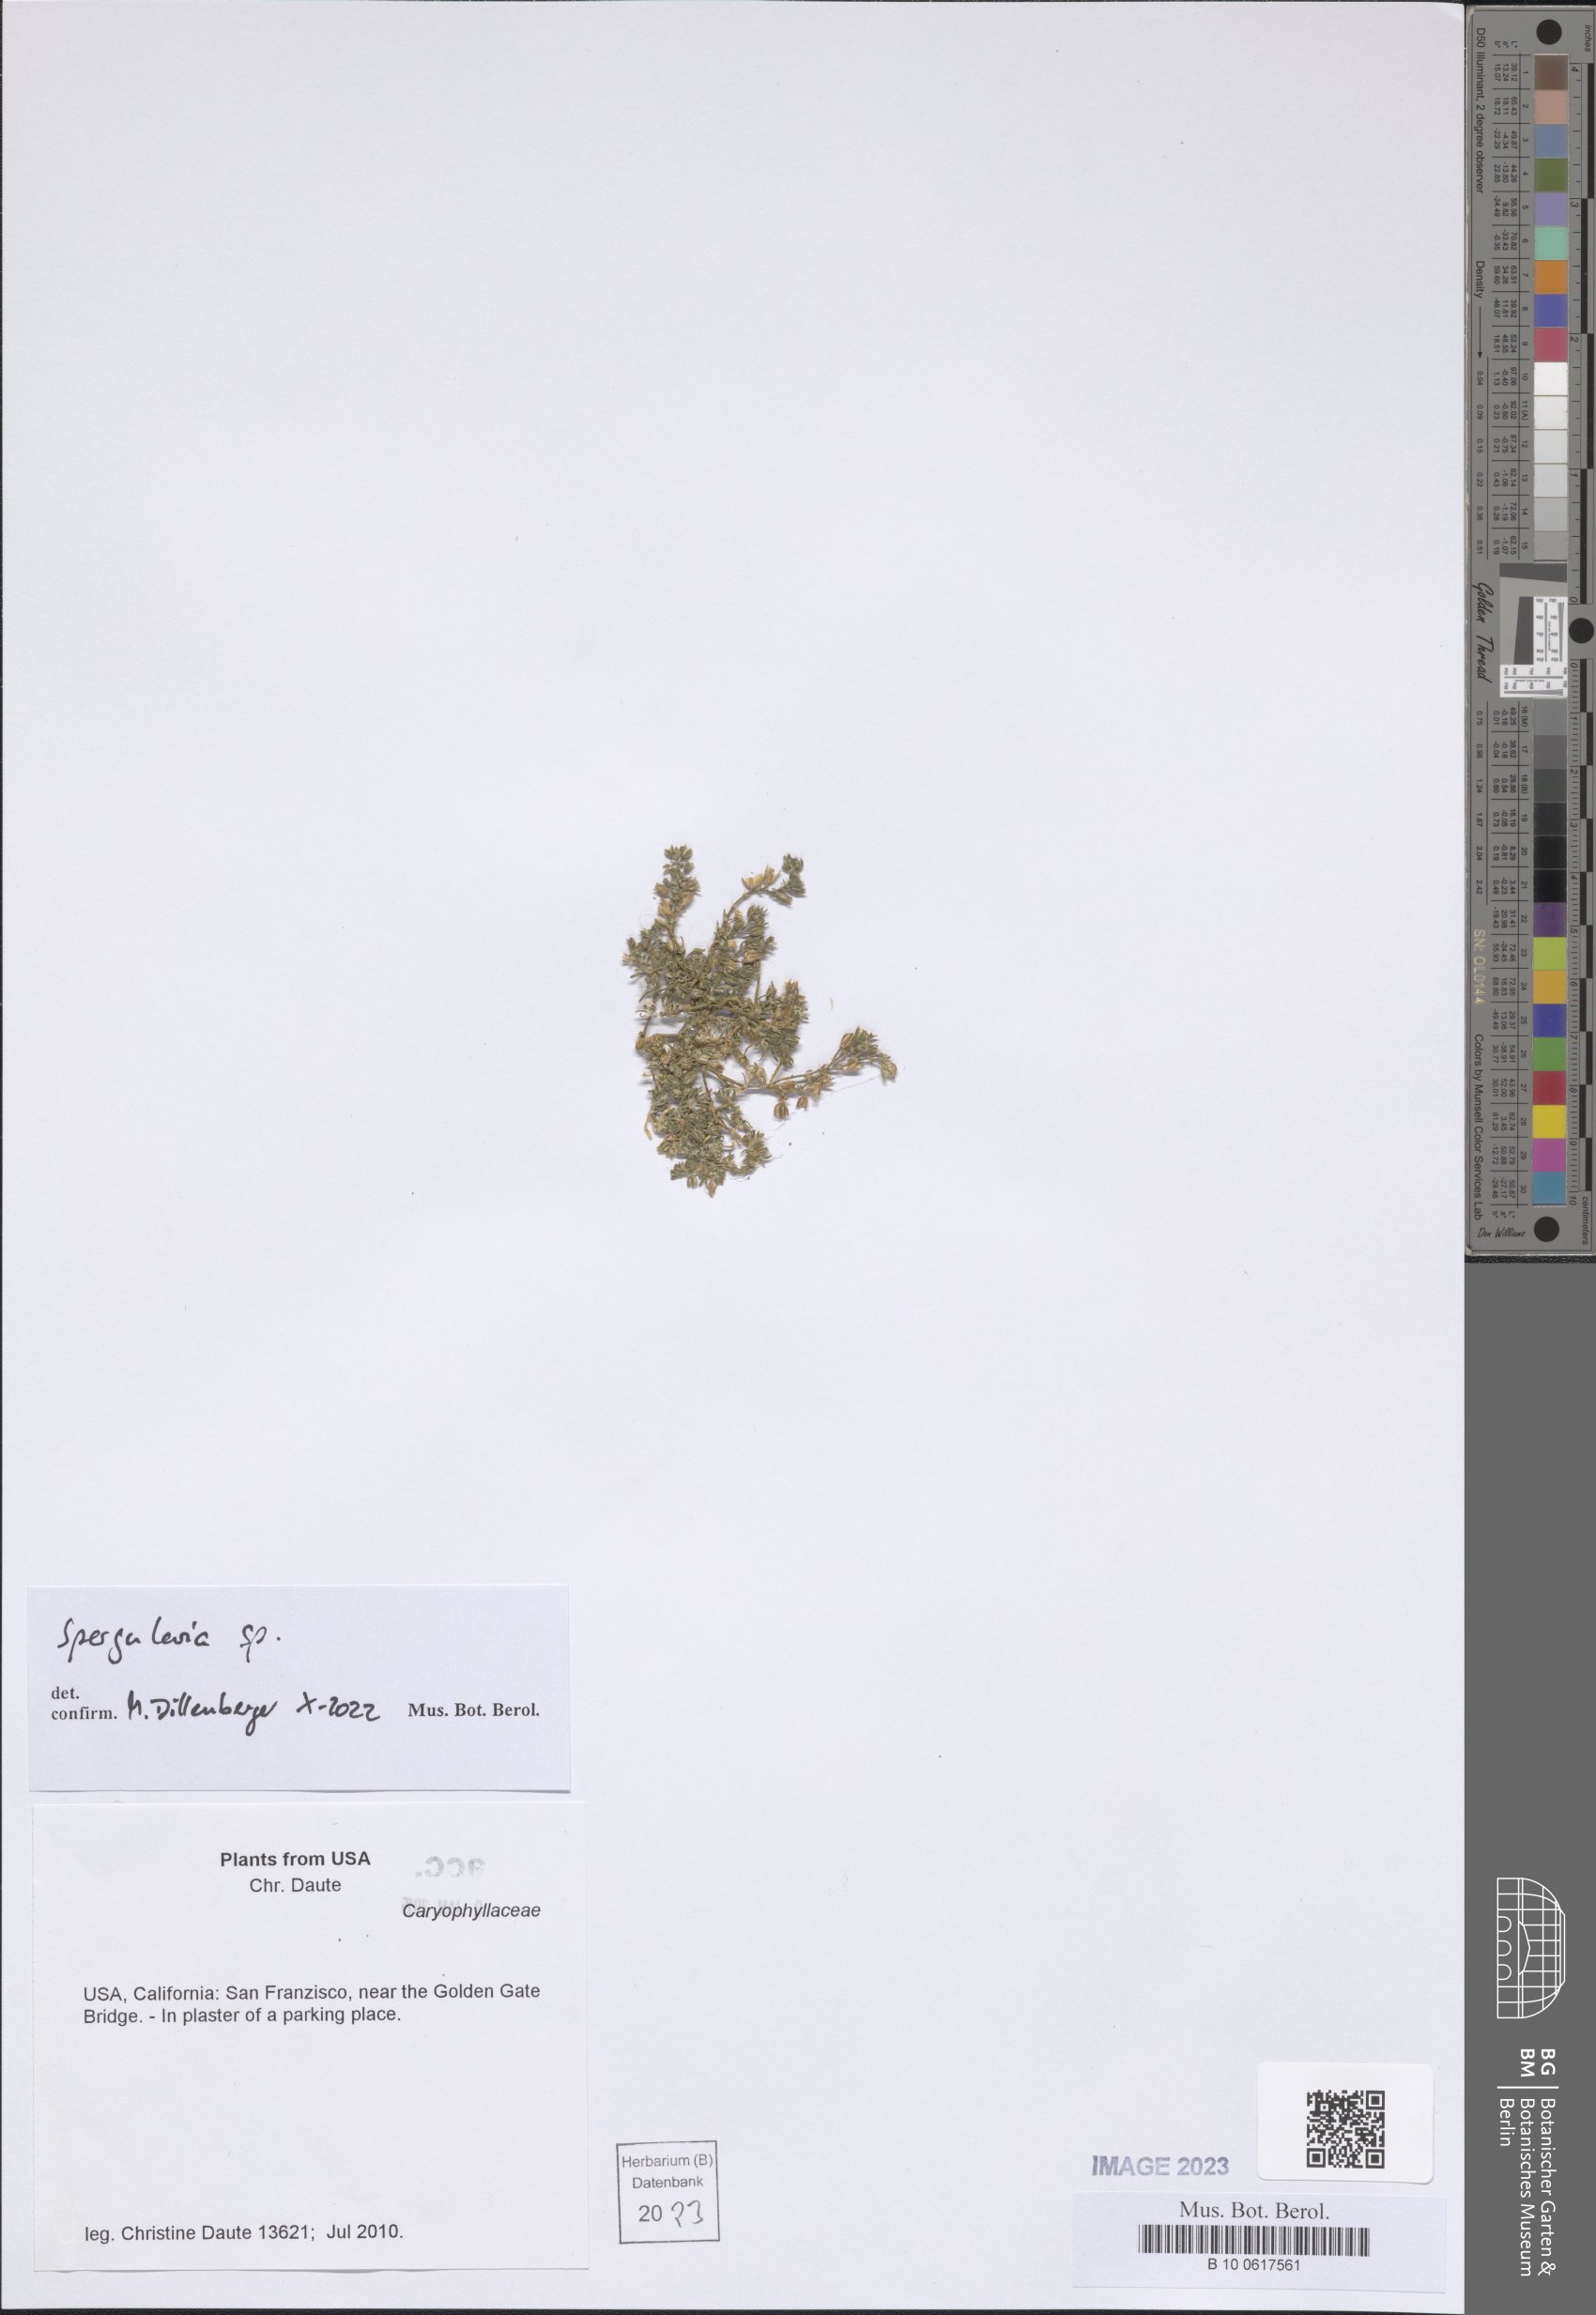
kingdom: Plantae
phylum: Tracheophyta
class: Magnoliopsida
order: Caryophyllales
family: Caryophyllaceae
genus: Spergularia
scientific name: Spergularia
